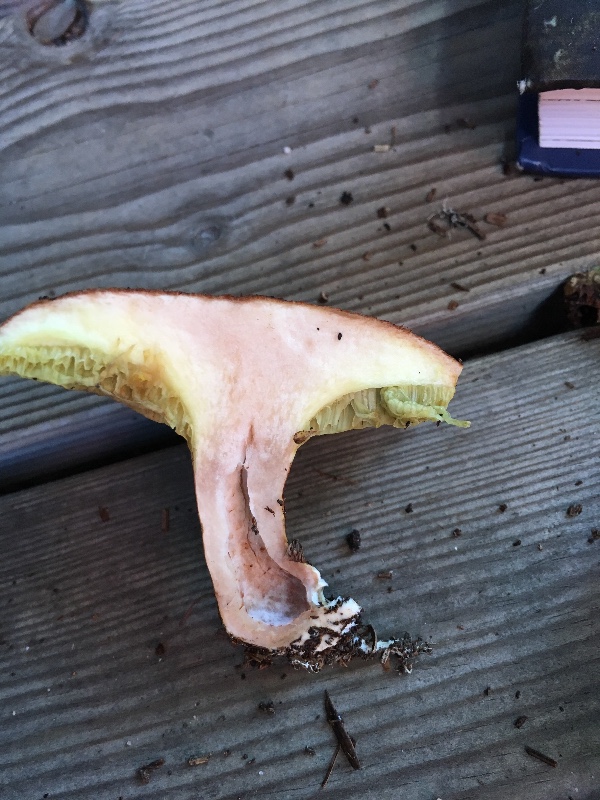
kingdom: Fungi
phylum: Basidiomycota
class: Agaricomycetes
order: Boletales
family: Suillaceae
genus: Suillus
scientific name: Suillus cavipes
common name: hulstokket slimrørhat
